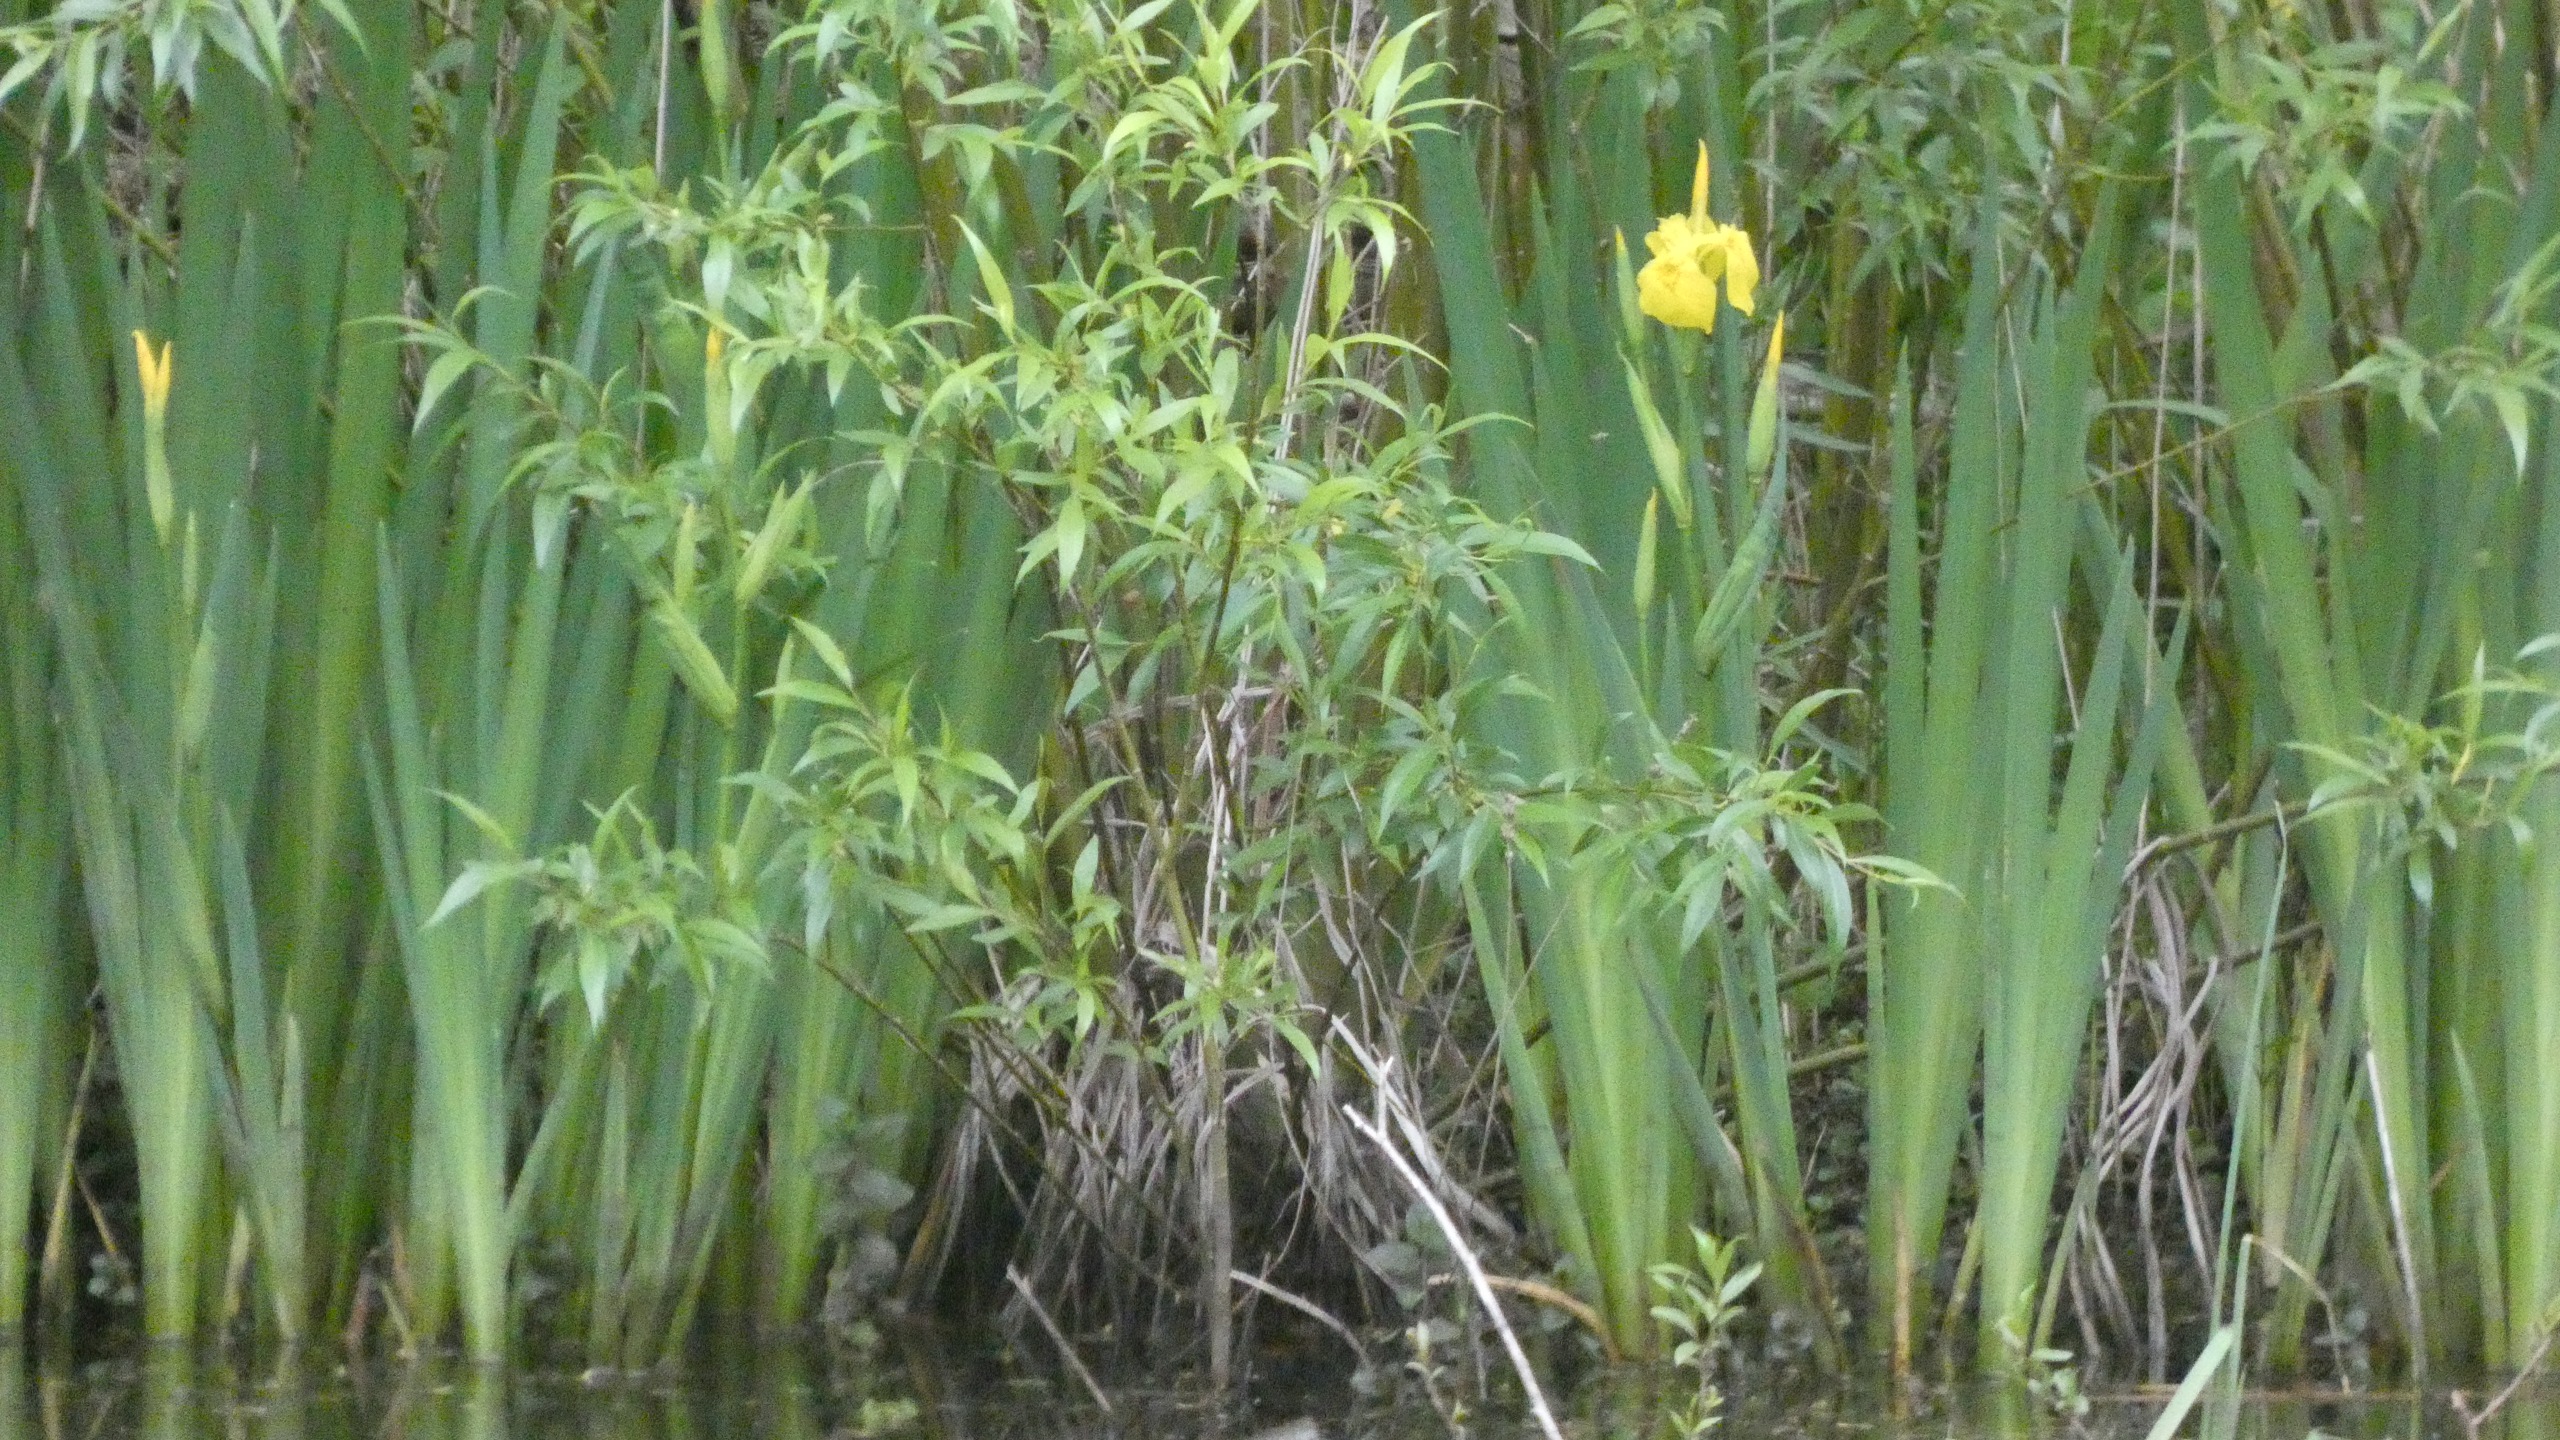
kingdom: Plantae
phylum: Tracheophyta
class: Liliopsida
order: Asparagales
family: Iridaceae
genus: Iris
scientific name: Iris pseudacorus
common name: Gul iris
